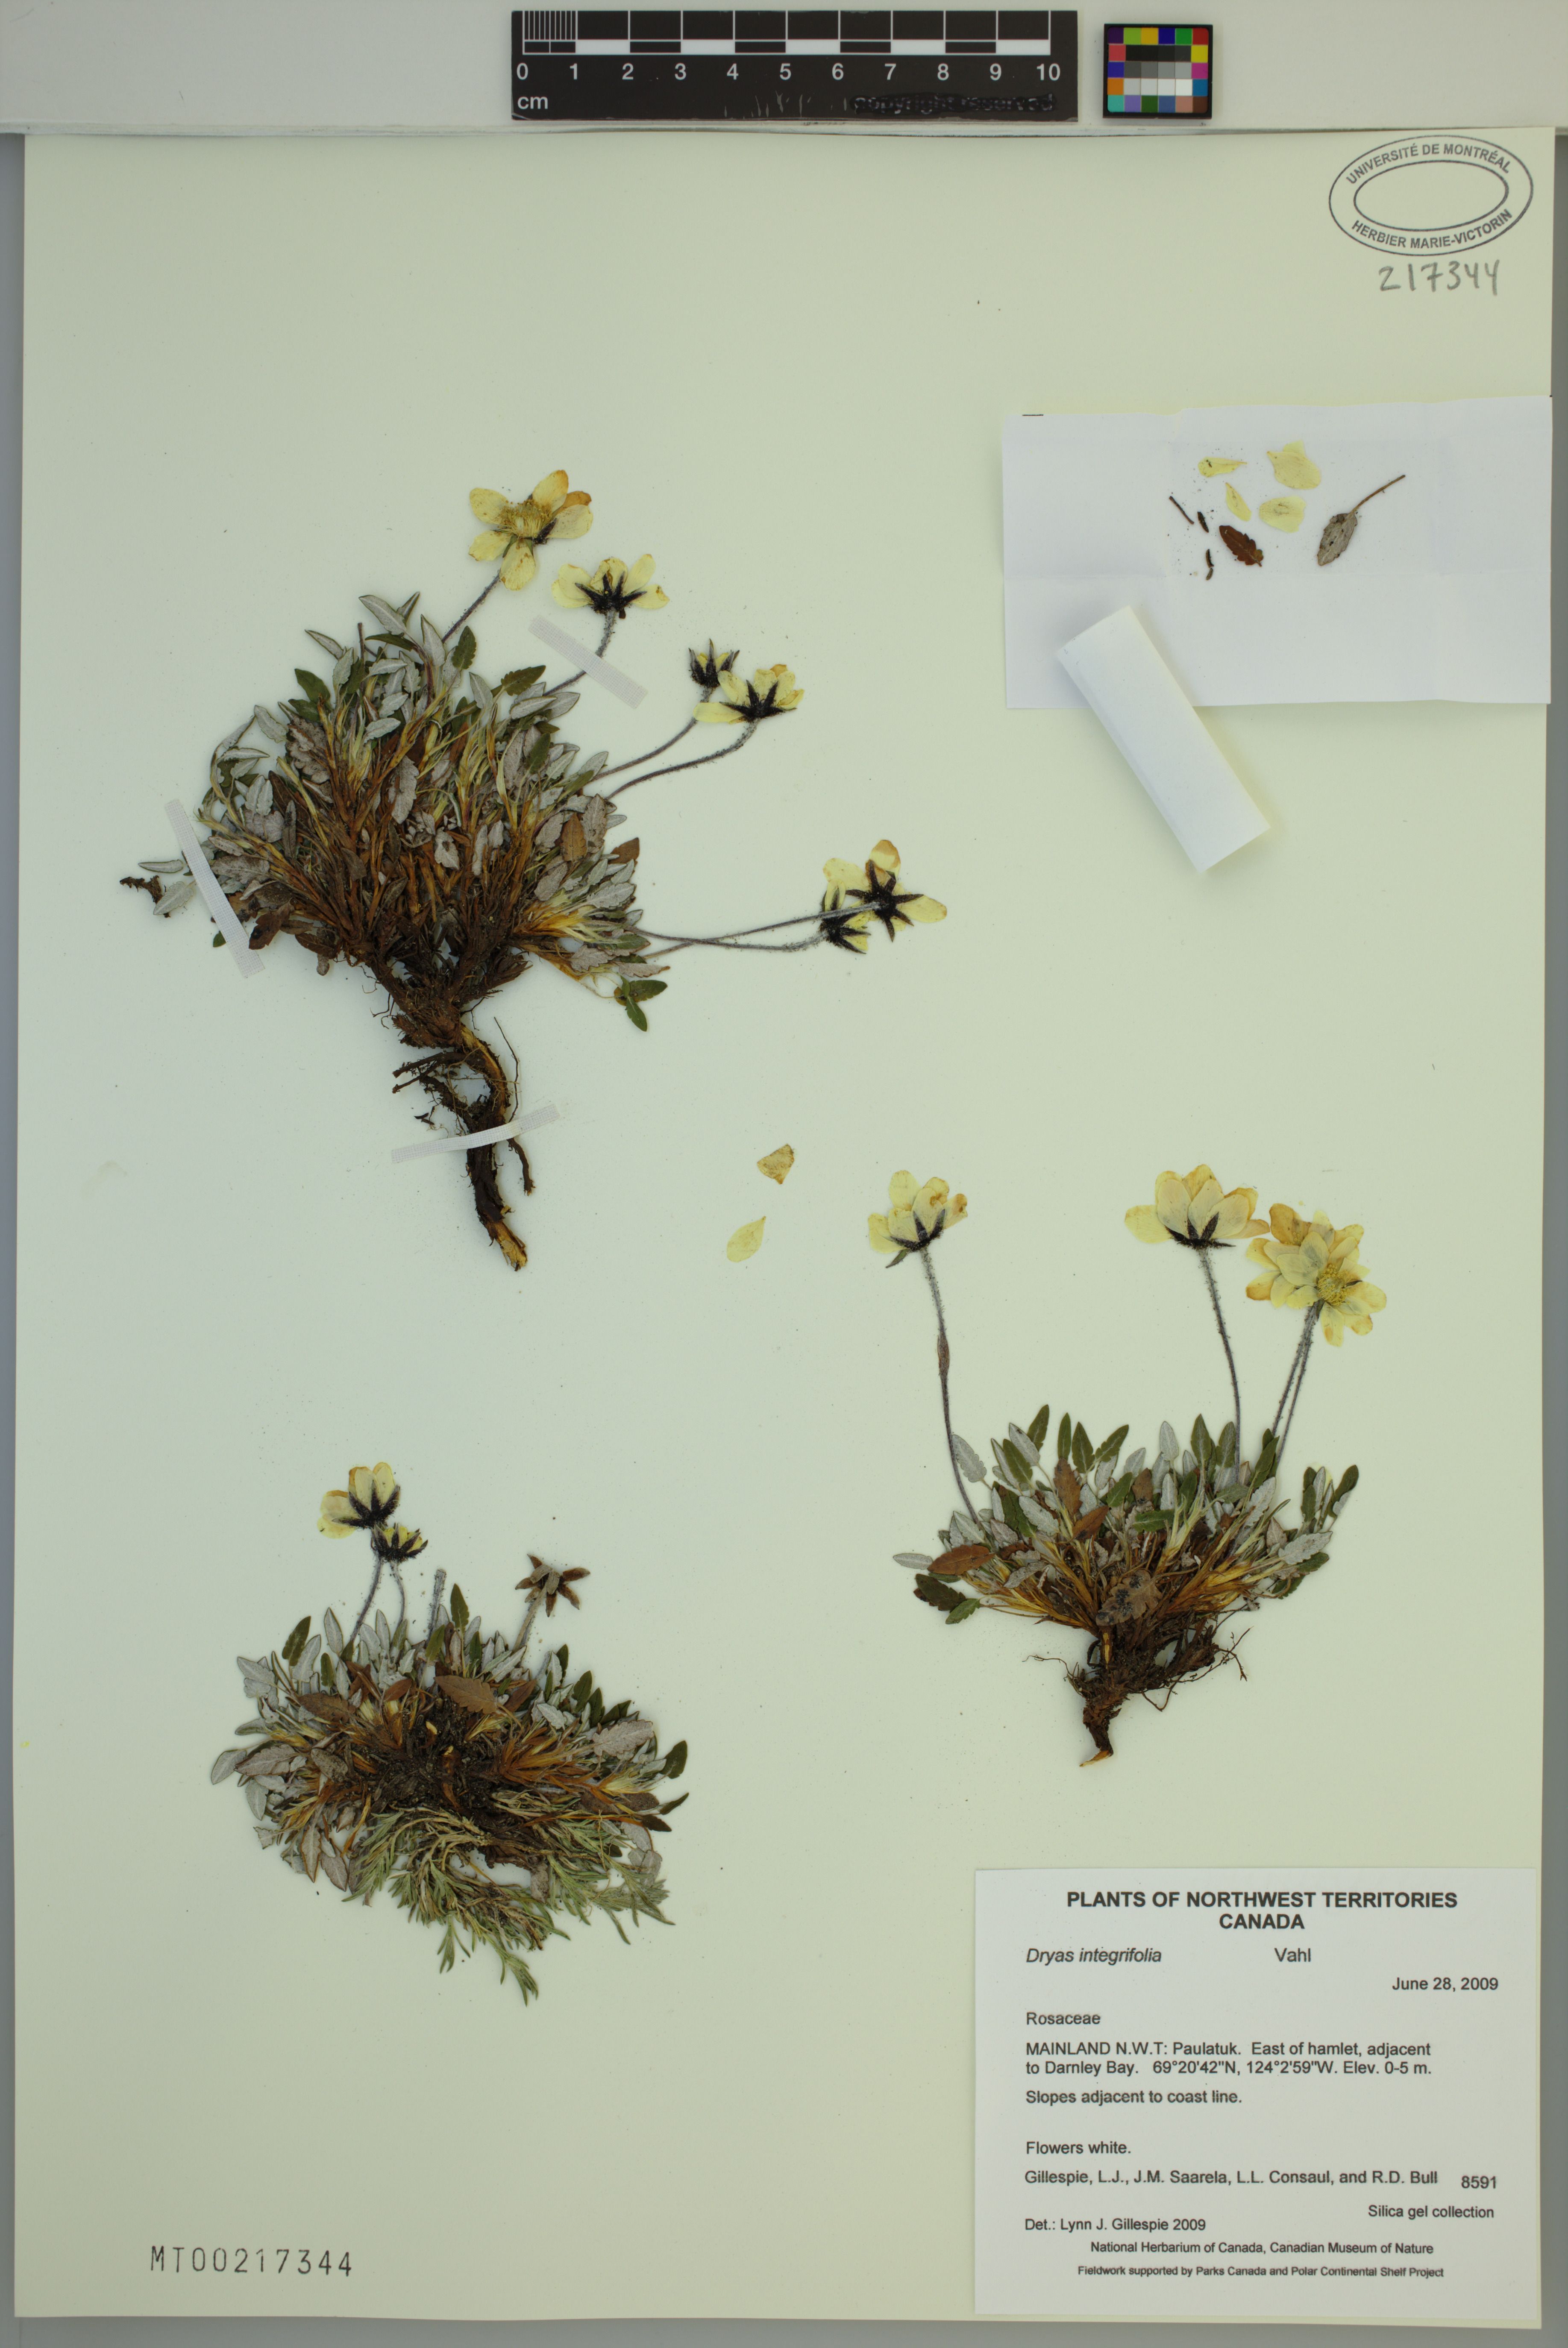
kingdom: Plantae
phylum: Tracheophyta
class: Magnoliopsida
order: Rosales
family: Rosaceae
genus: Dryas
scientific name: Dryas integrifolia
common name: Entire-leaved mountain avens
